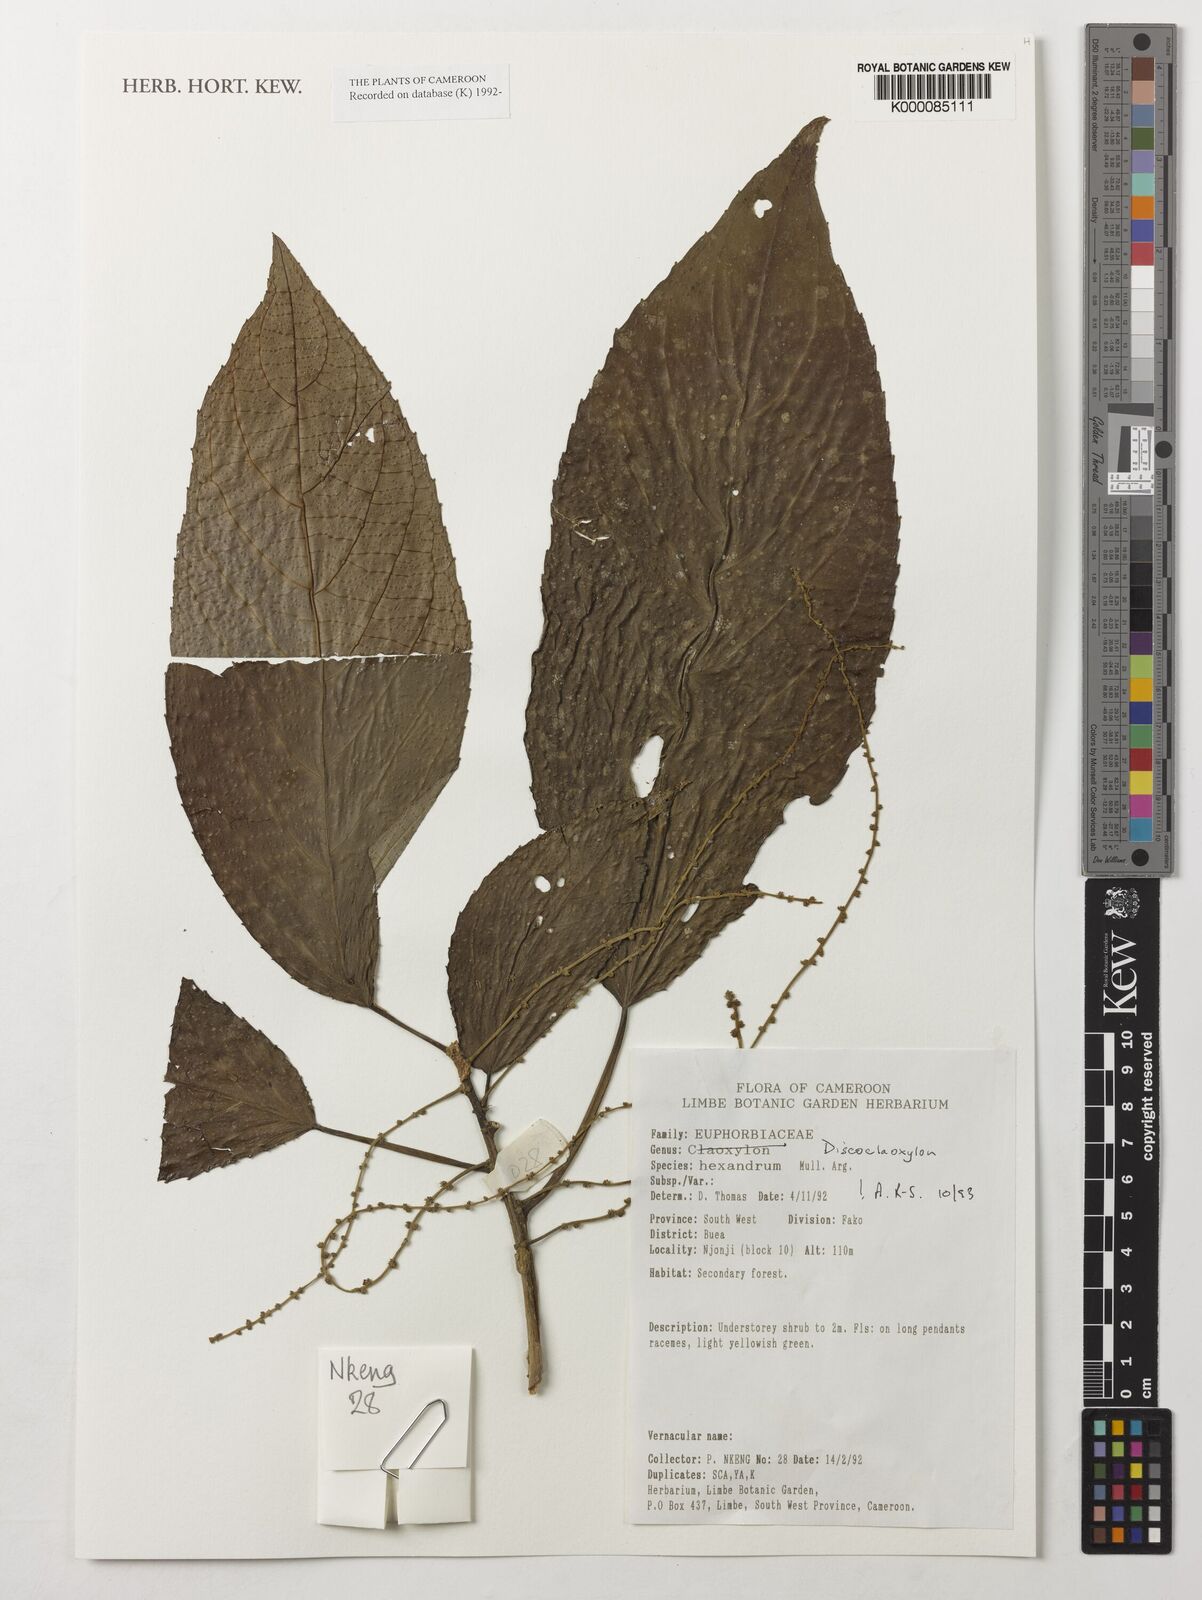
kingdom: Plantae
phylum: Tracheophyta
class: Magnoliopsida
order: Malpighiales
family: Euphorbiaceae
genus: Discoclaoxylon
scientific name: Discoclaoxylon
